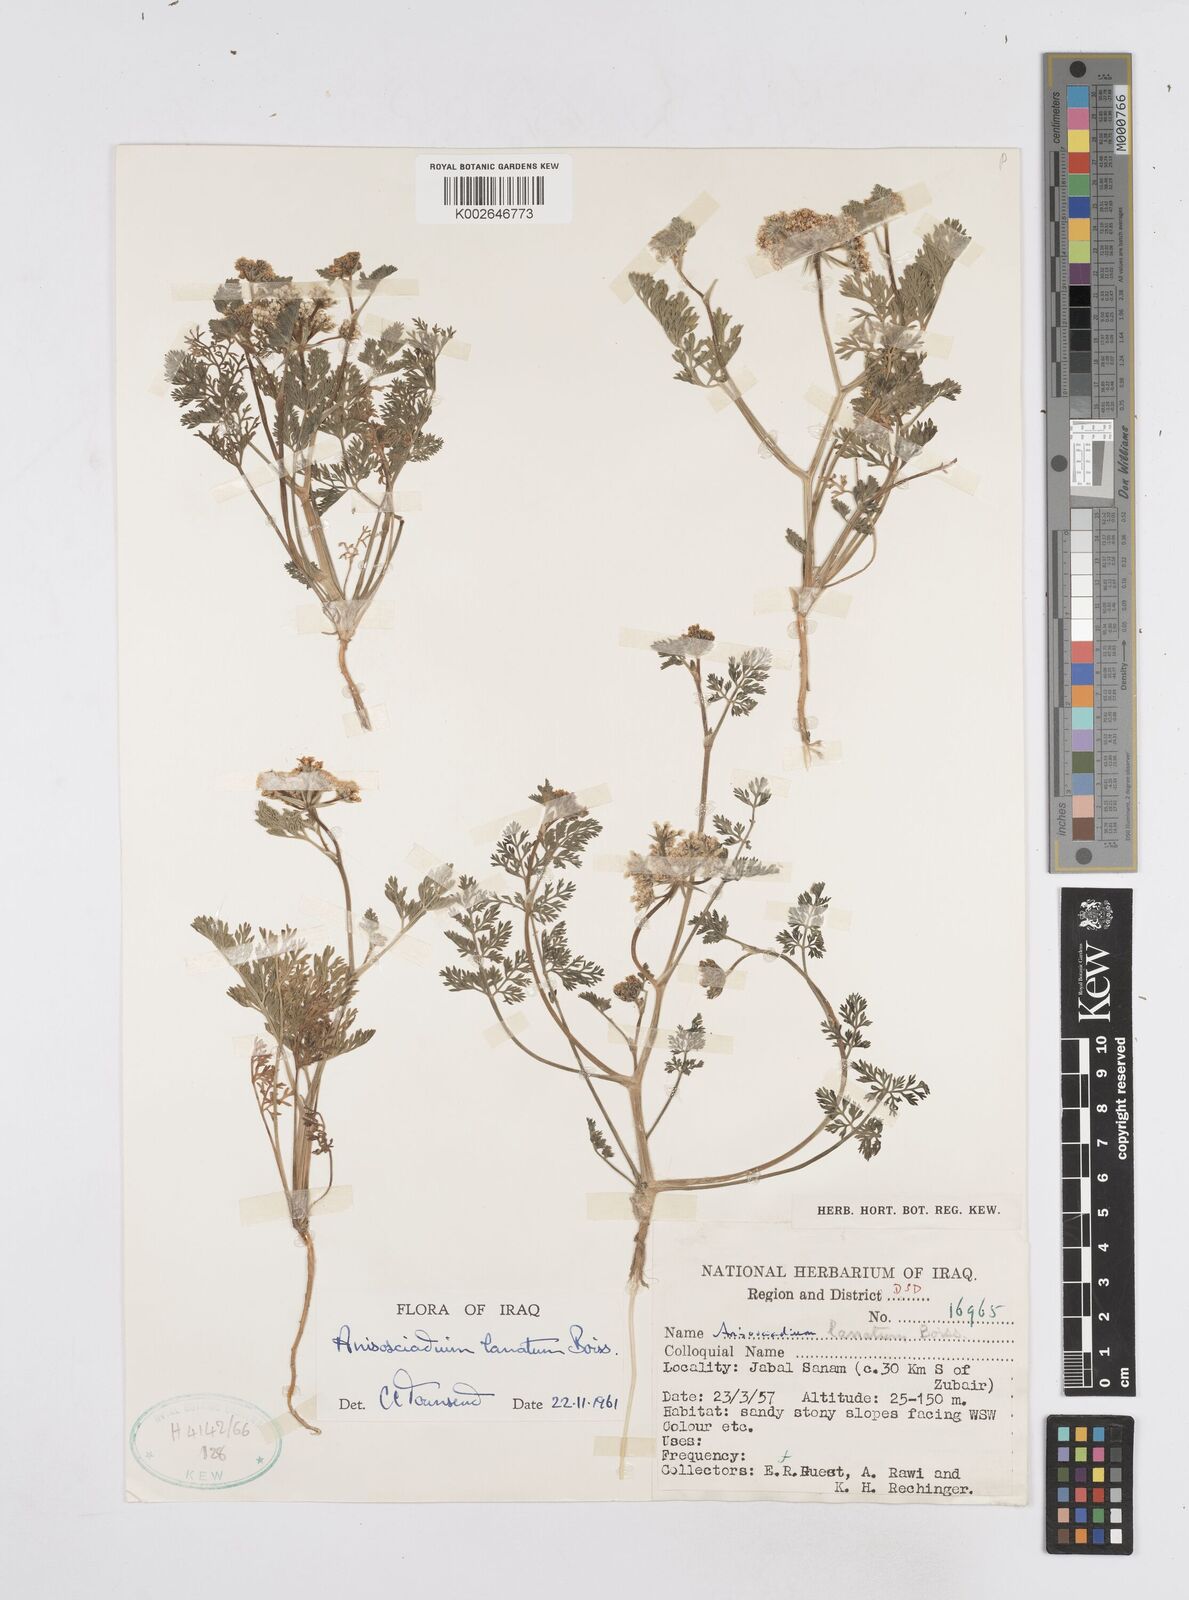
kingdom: Plantae
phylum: Tracheophyta
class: Magnoliopsida
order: Apiales
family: Apiaceae
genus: Anisosciadium
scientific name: Anisosciadium lanatum
